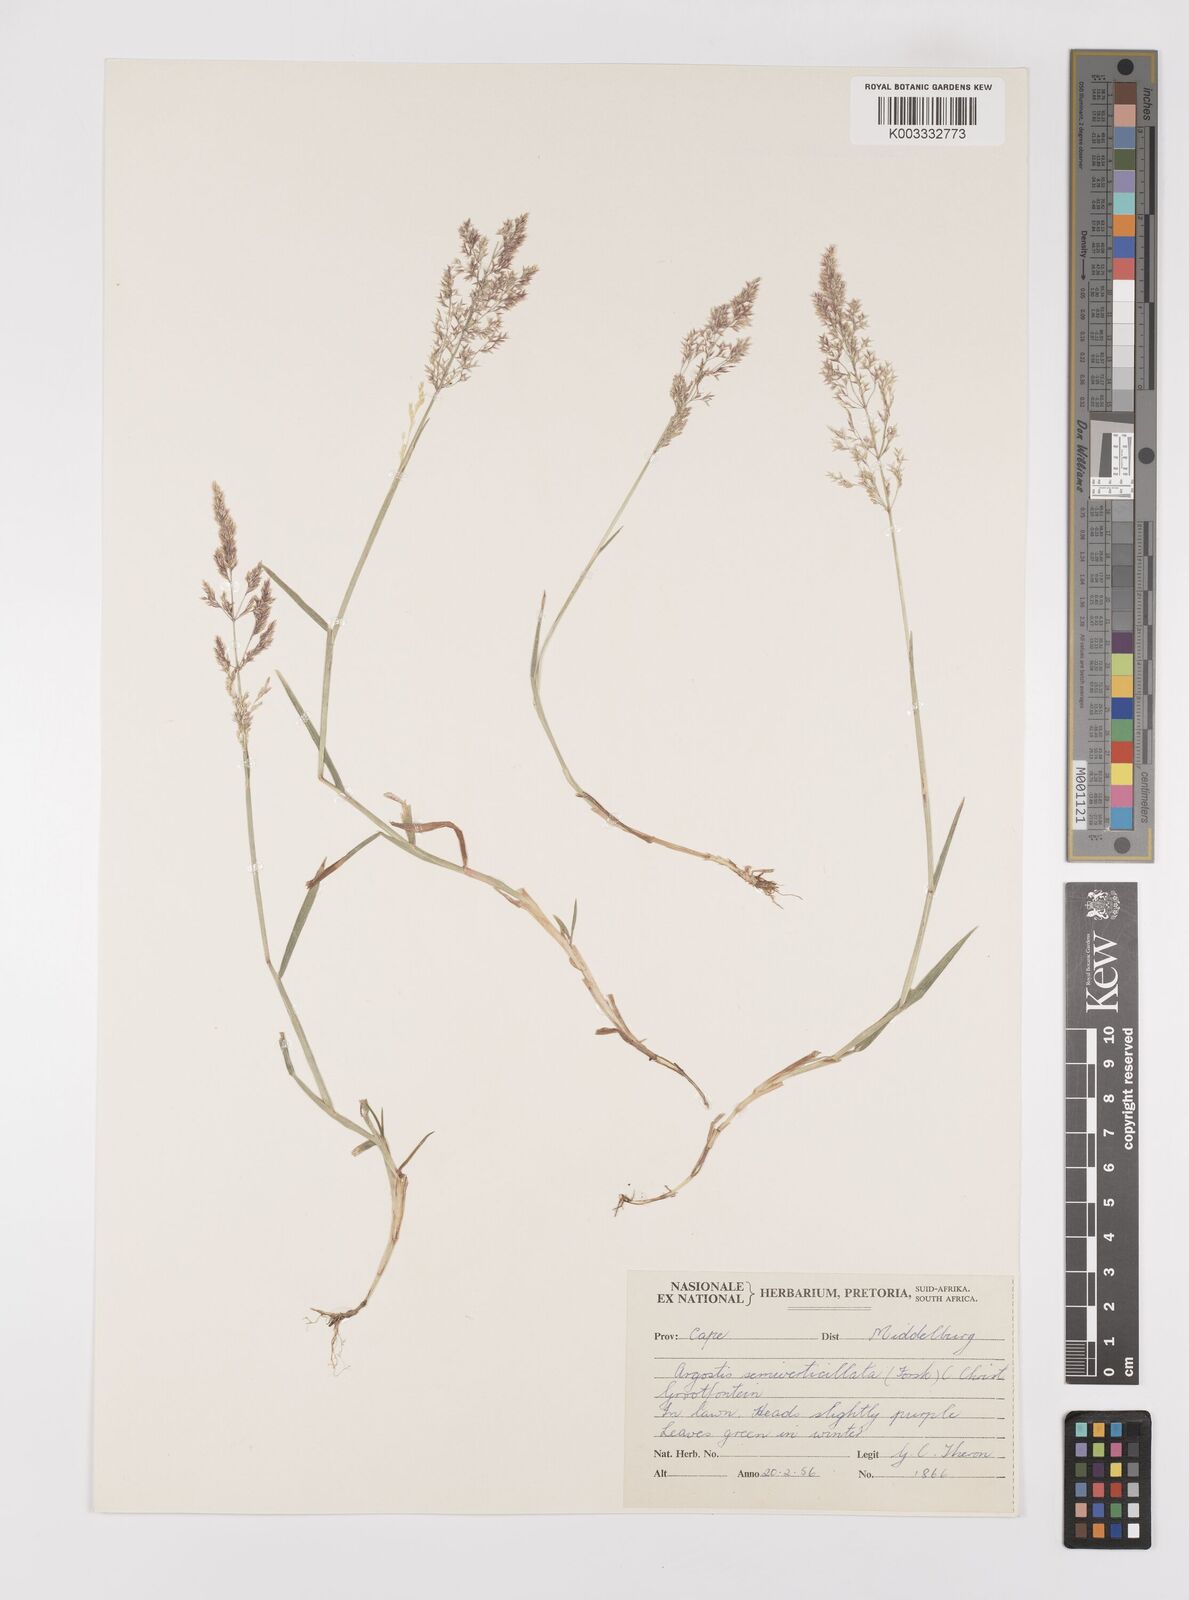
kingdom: Plantae
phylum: Tracheophyta
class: Liliopsida
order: Poales
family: Poaceae
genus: Polypogon
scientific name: Polypogon viridis
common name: Water bent
